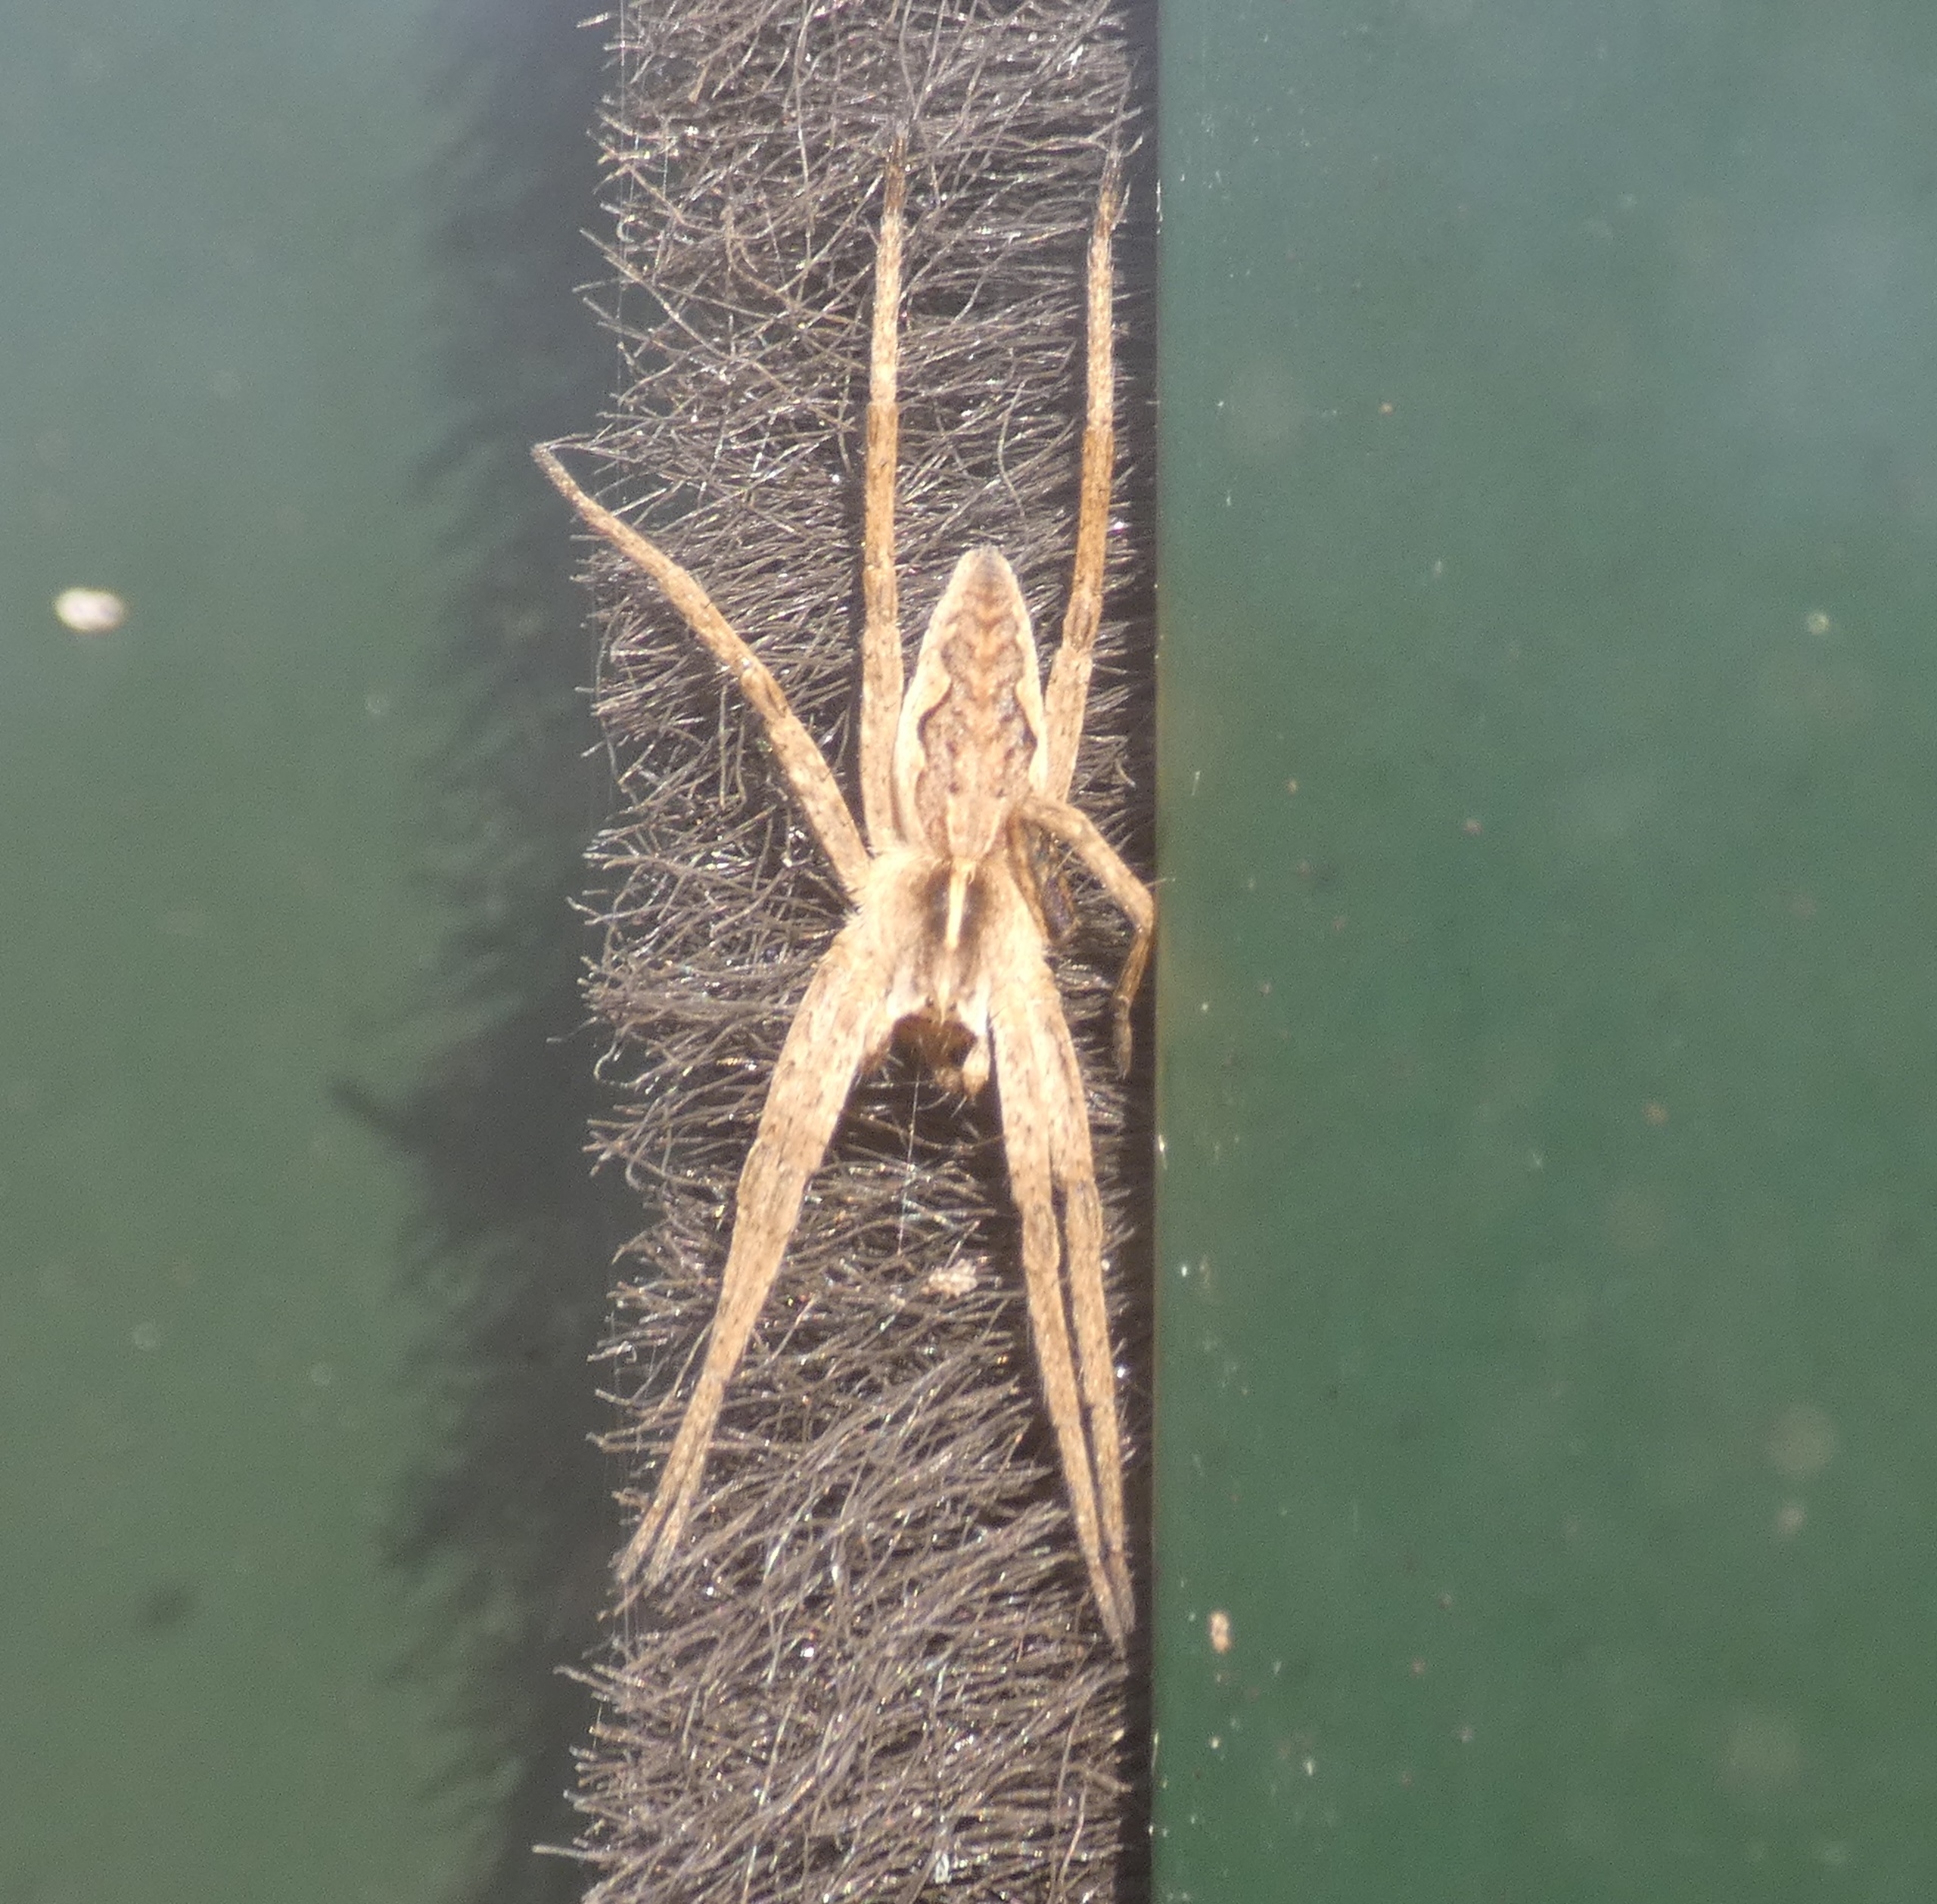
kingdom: Animalia
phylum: Arthropoda
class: Arachnida
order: Araneae
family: Pisauridae
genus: Pisaura
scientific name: Pisaura mirabilis
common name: Almindelig rovedderkop
